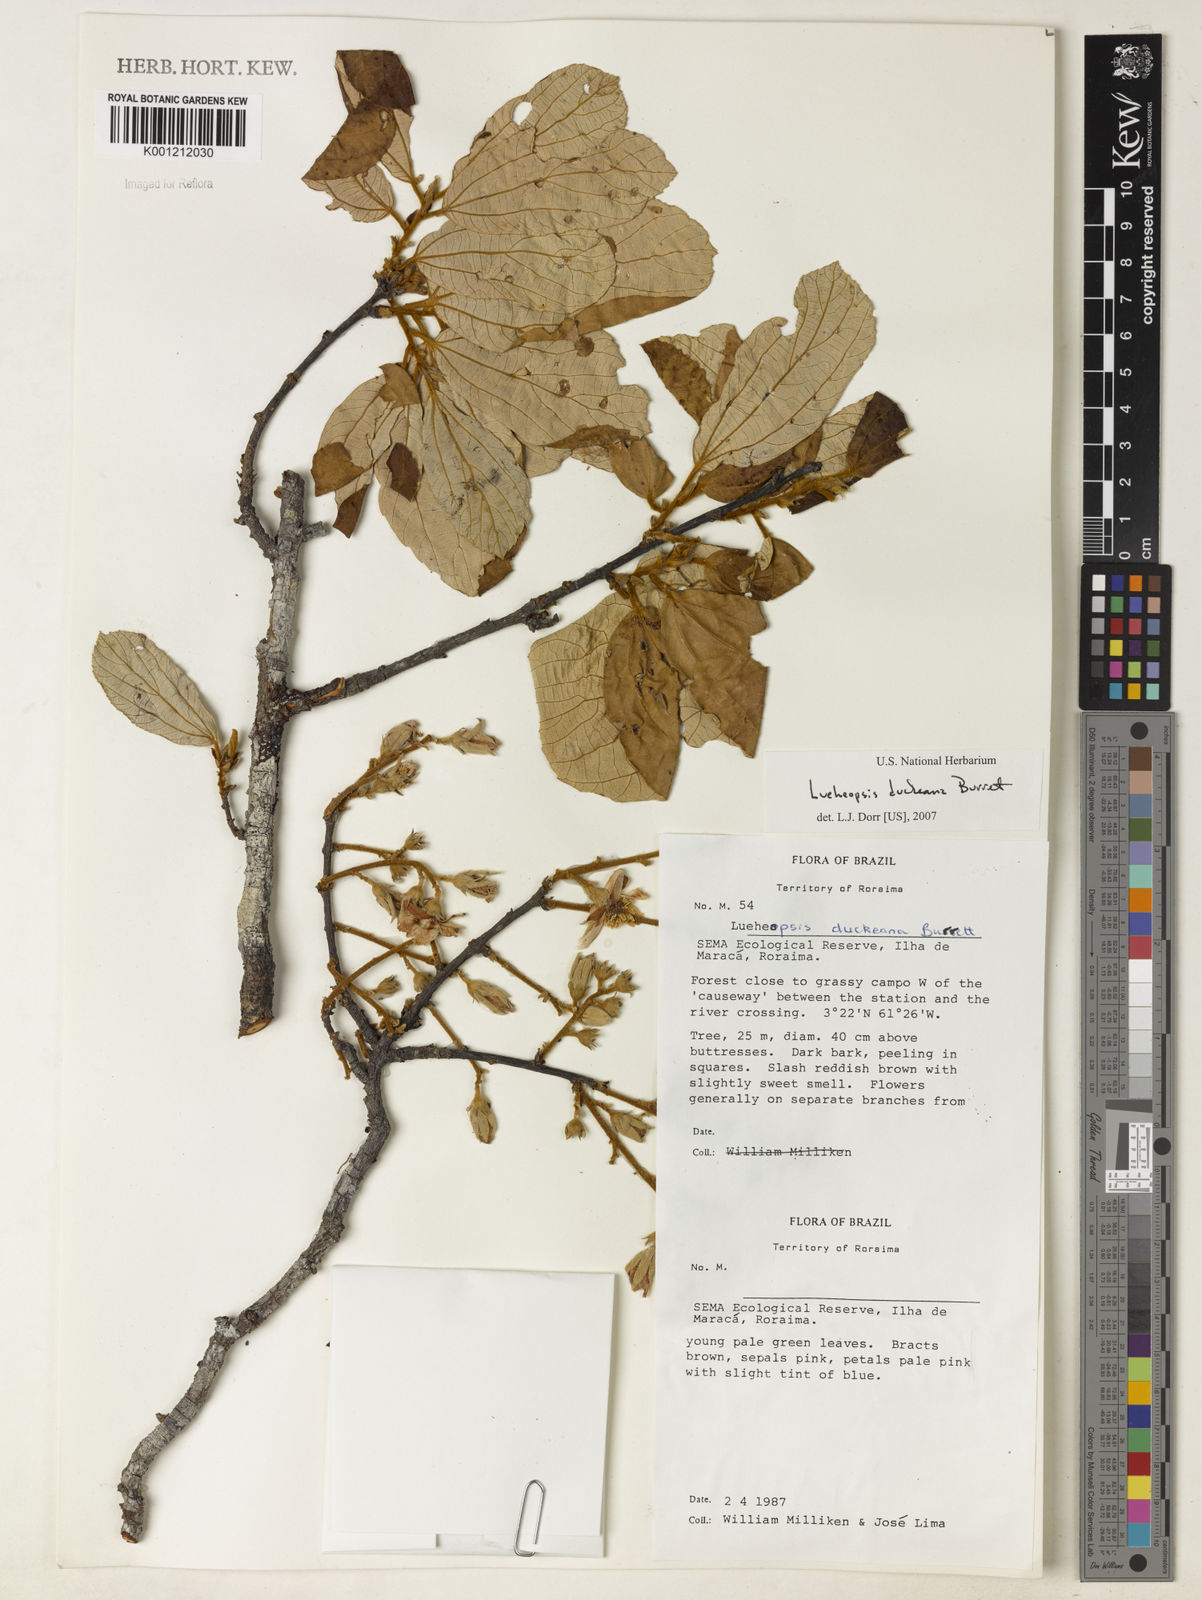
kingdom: Plantae
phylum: Tracheophyta
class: Magnoliopsida
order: Malvales
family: Malvaceae
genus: Lueheopsis
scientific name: Lueheopsis duckeana
